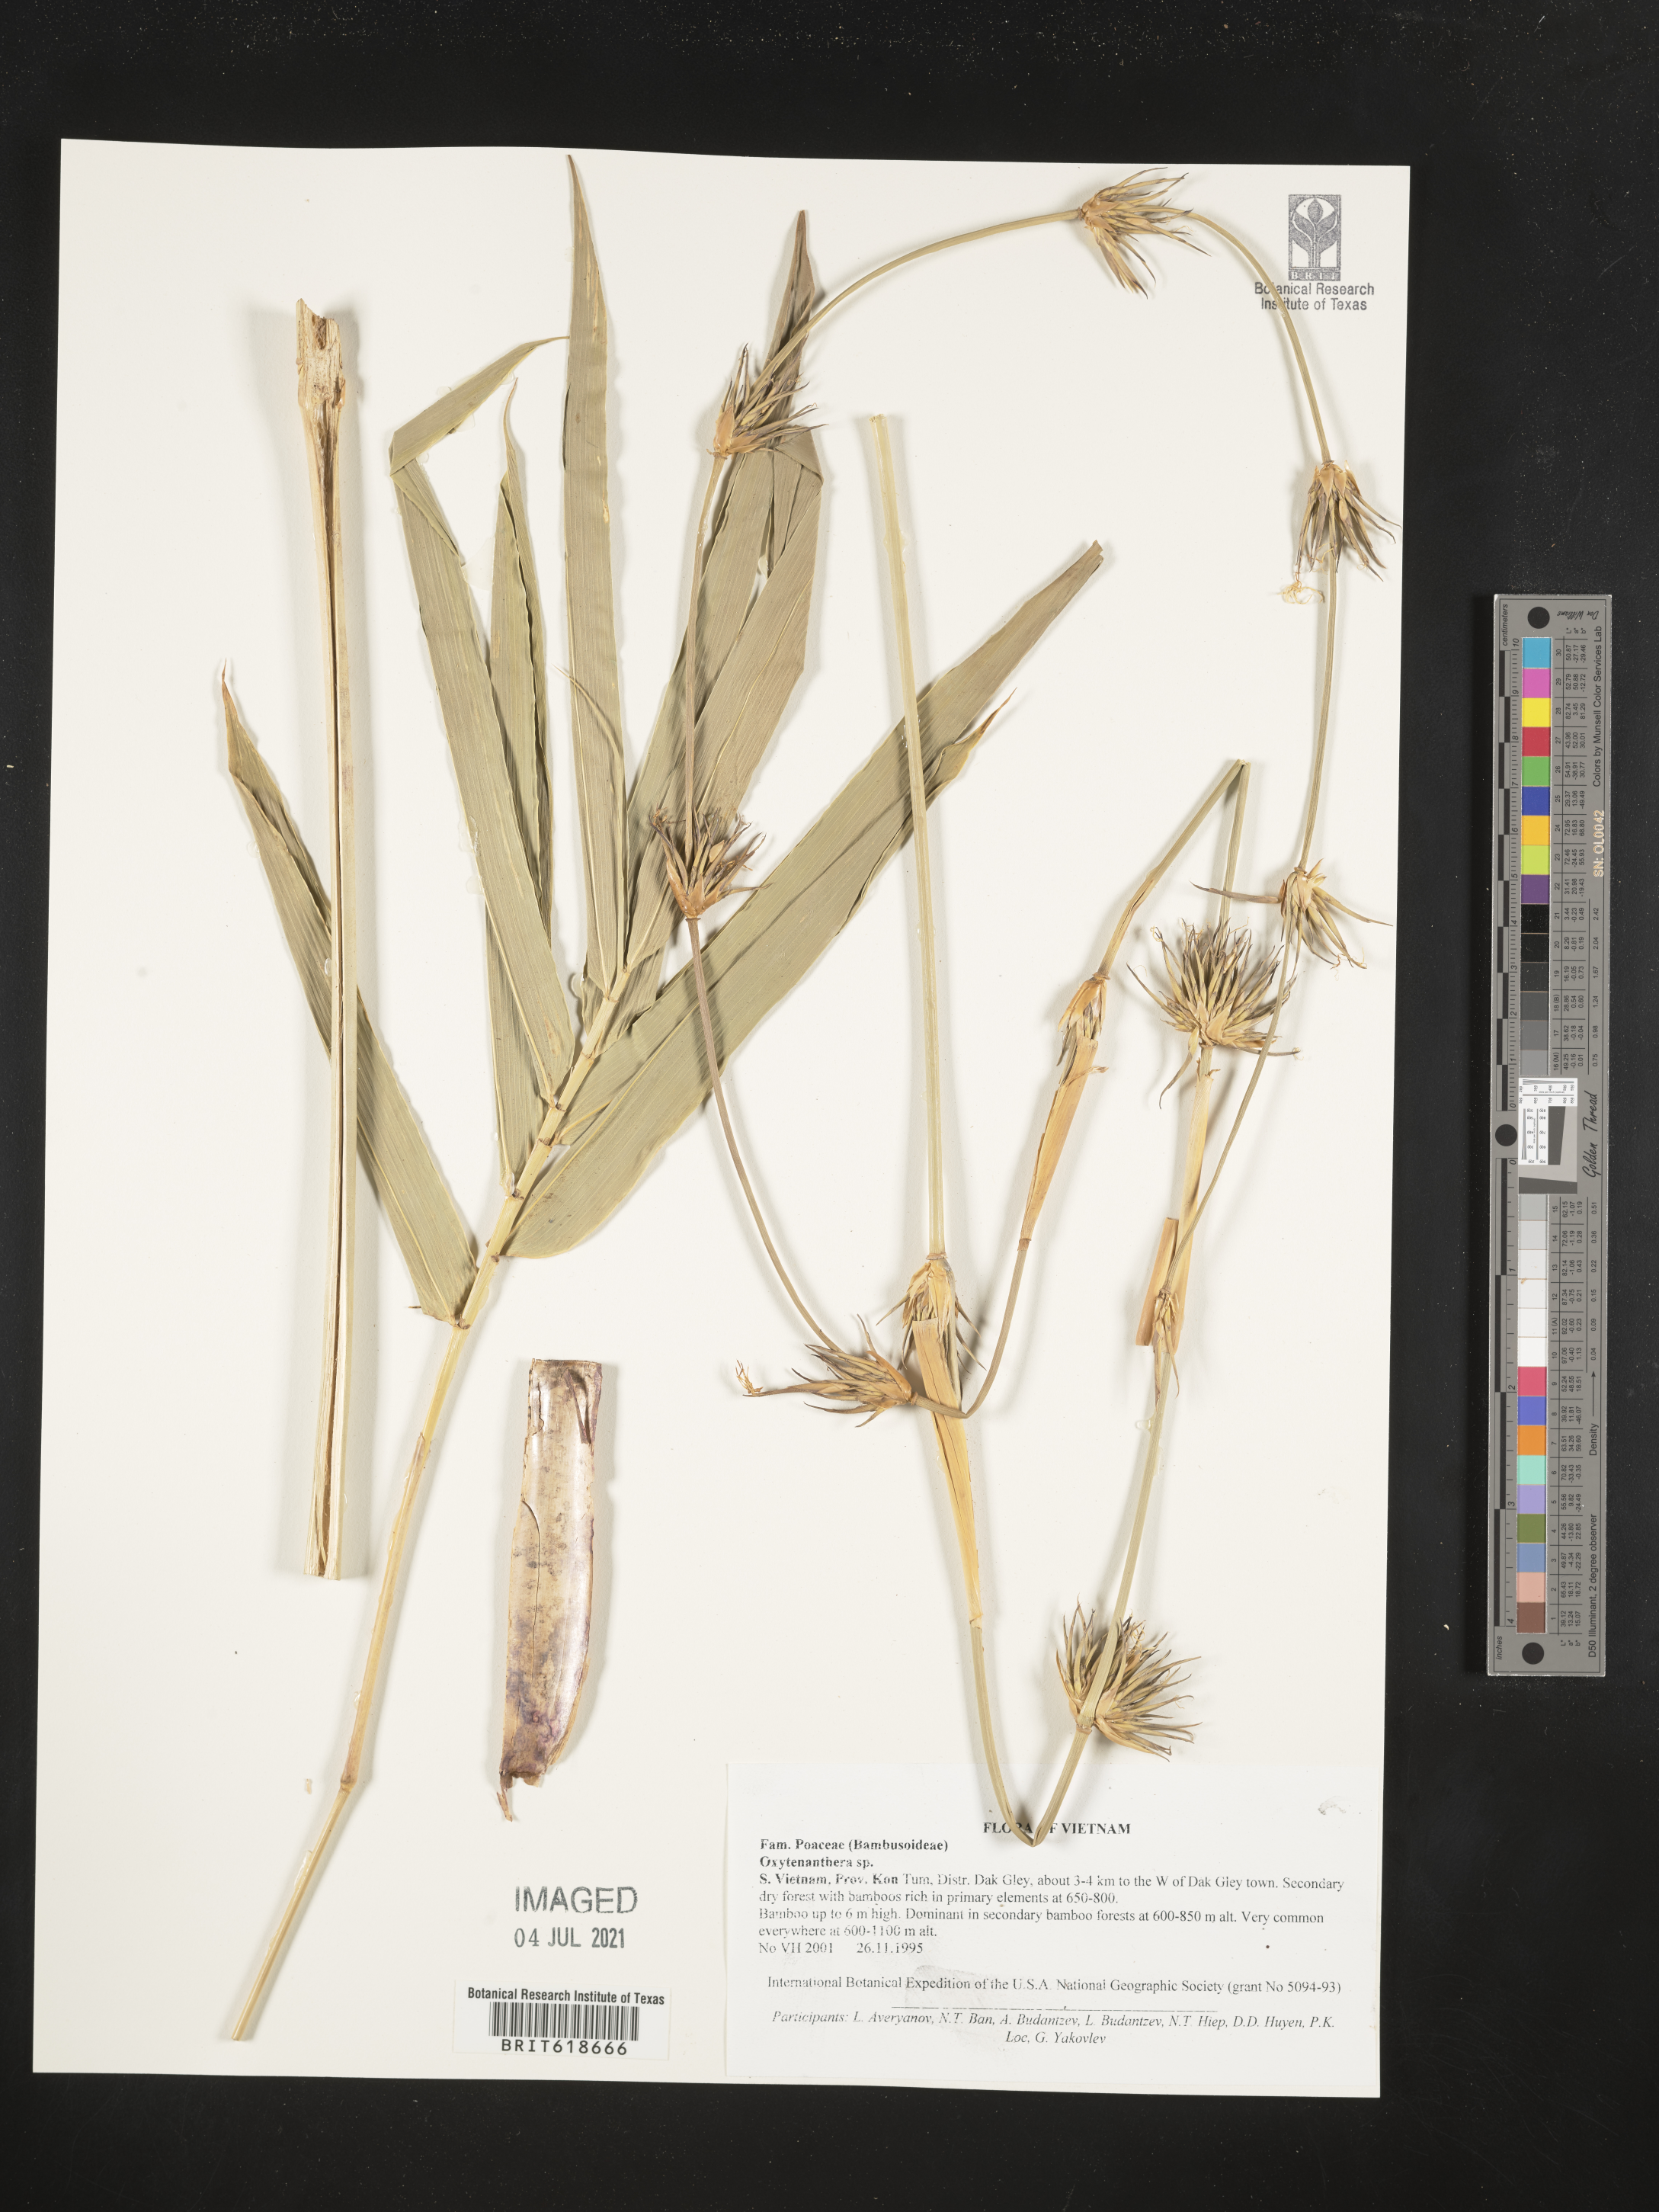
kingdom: Plantae
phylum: Tracheophyta
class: Liliopsida
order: Poales
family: Poaceae
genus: Oxytenanthera
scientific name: Oxytenanthera
